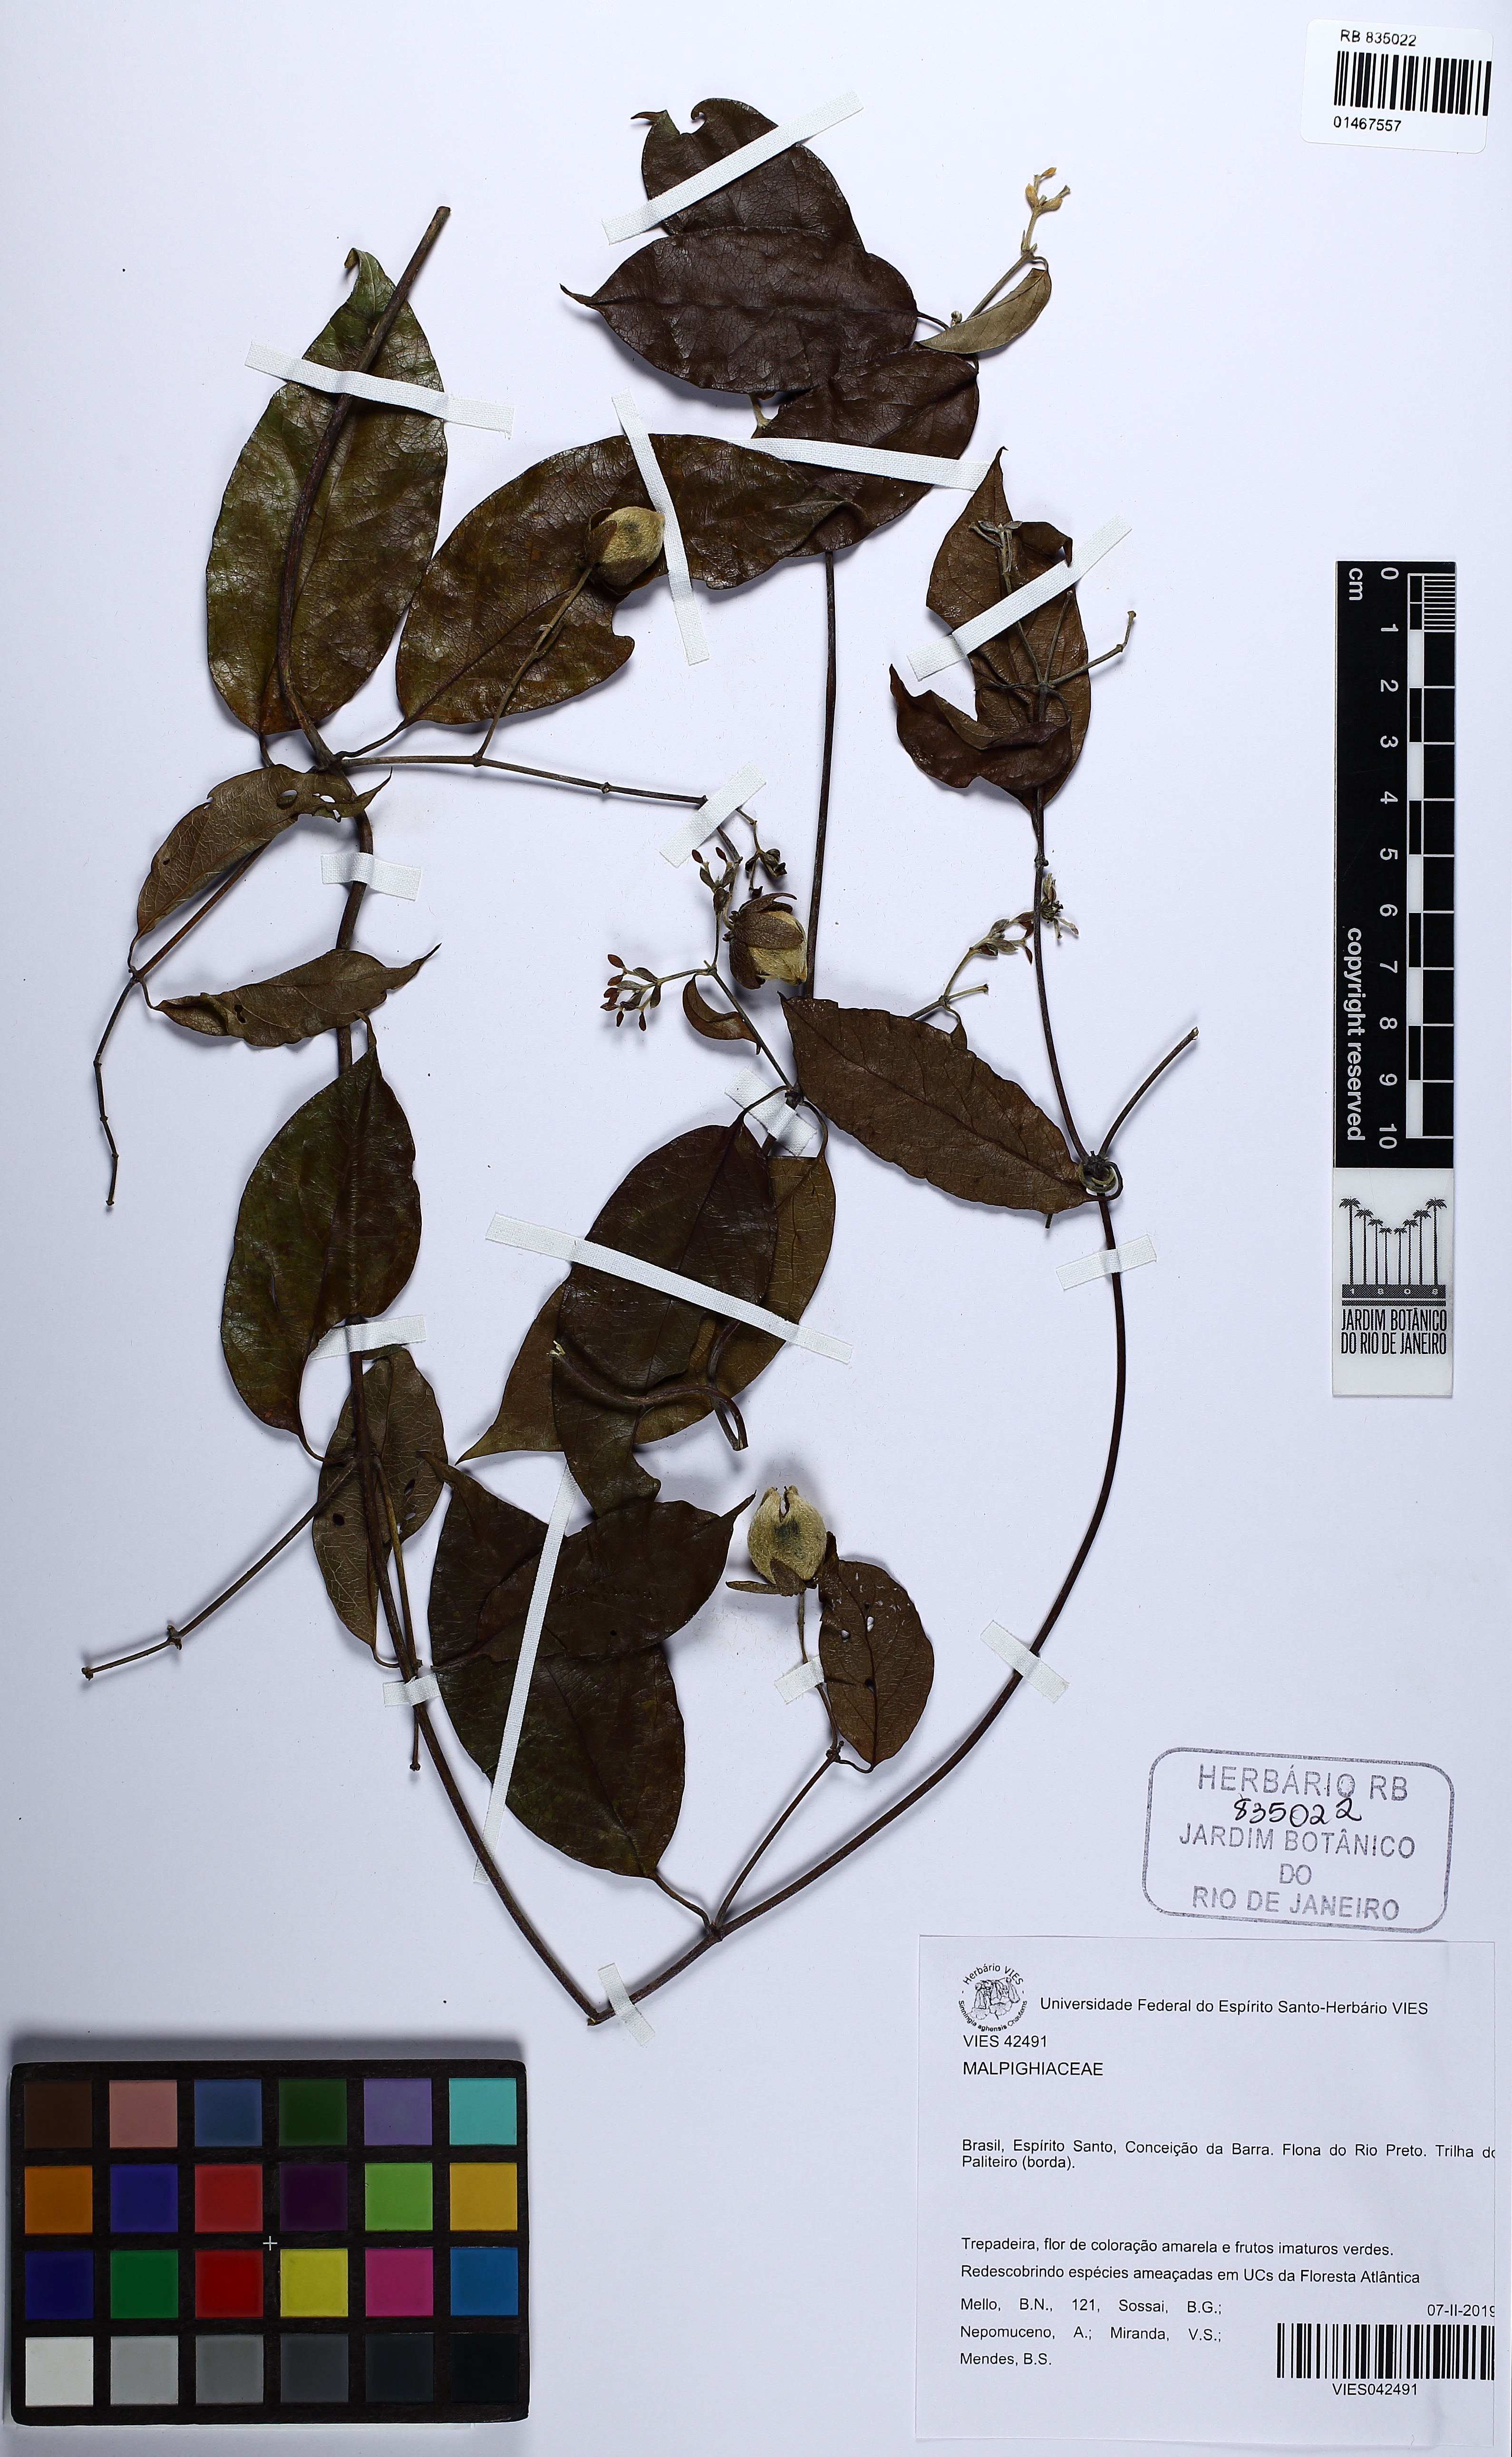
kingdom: Plantae
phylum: Tracheophyta
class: Magnoliopsida
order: Malpighiales
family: Malpighiaceae
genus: Dicella
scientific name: Dicella
